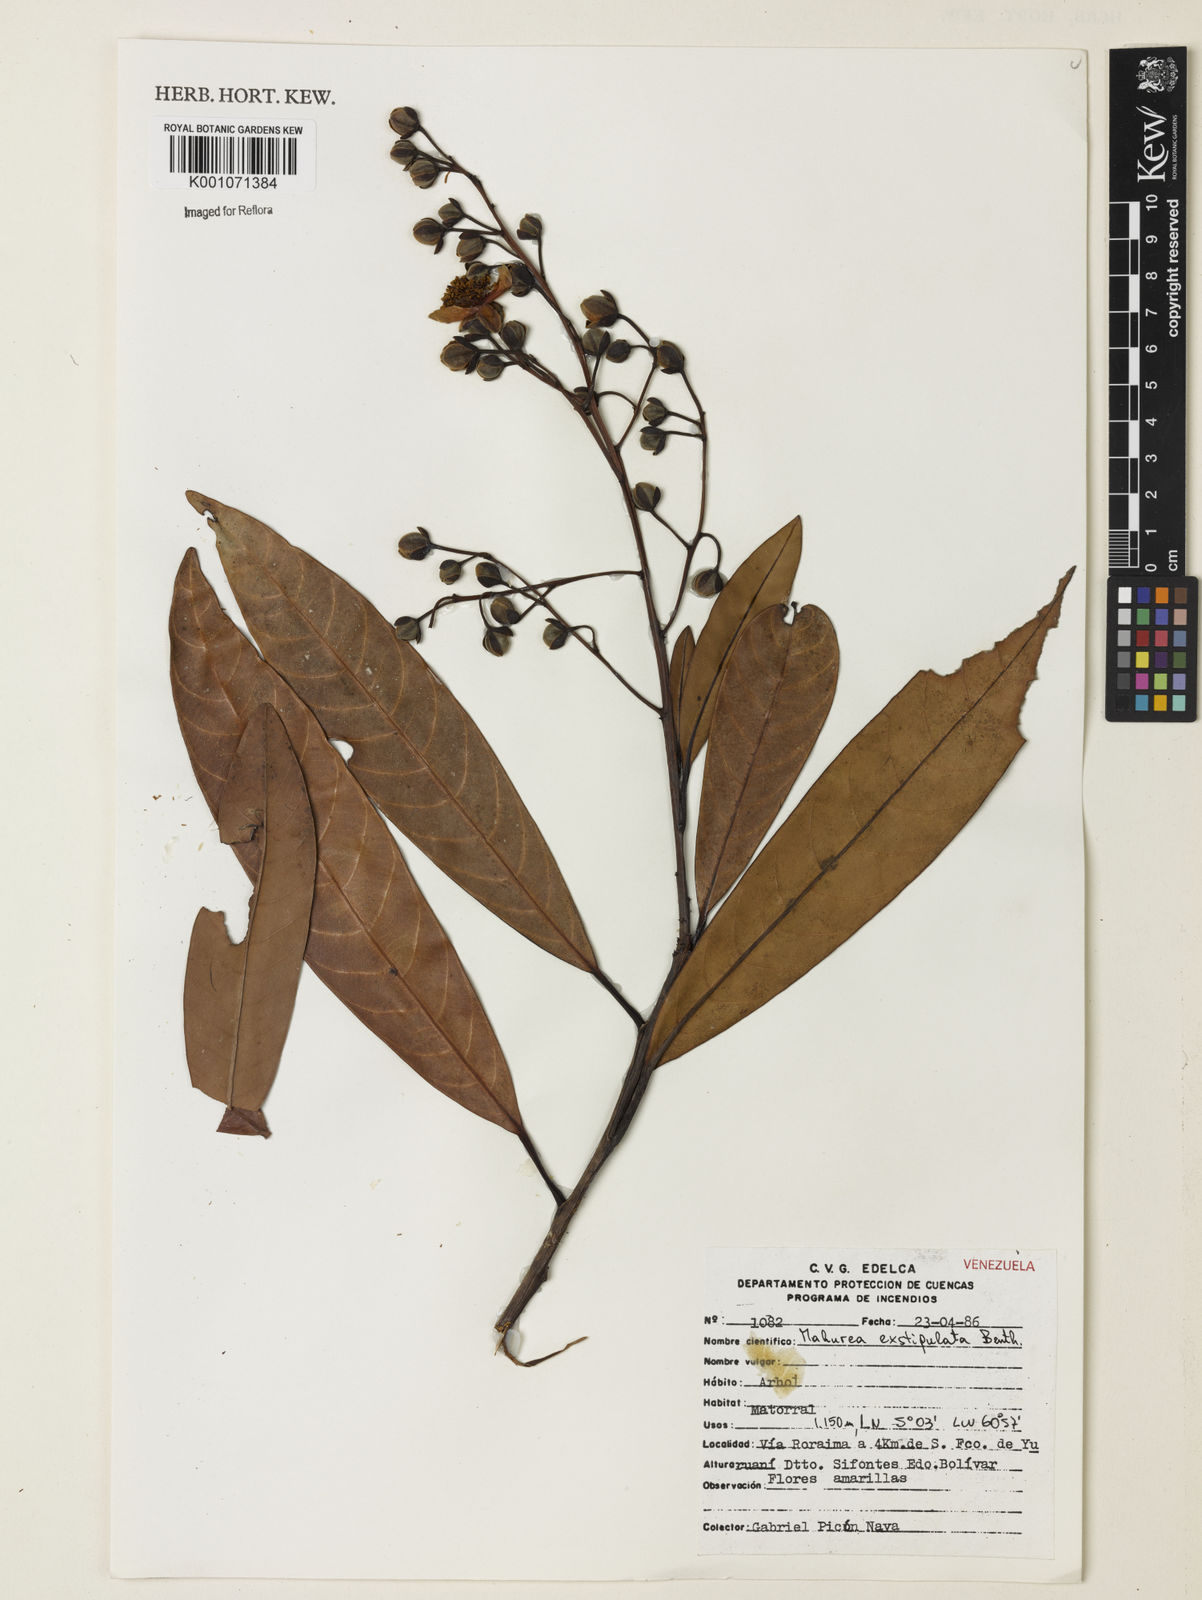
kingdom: Plantae
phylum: Tracheophyta
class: Magnoliopsida
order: Malpighiales
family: Calophyllaceae
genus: Mahurea
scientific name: Mahurea exstipulata
